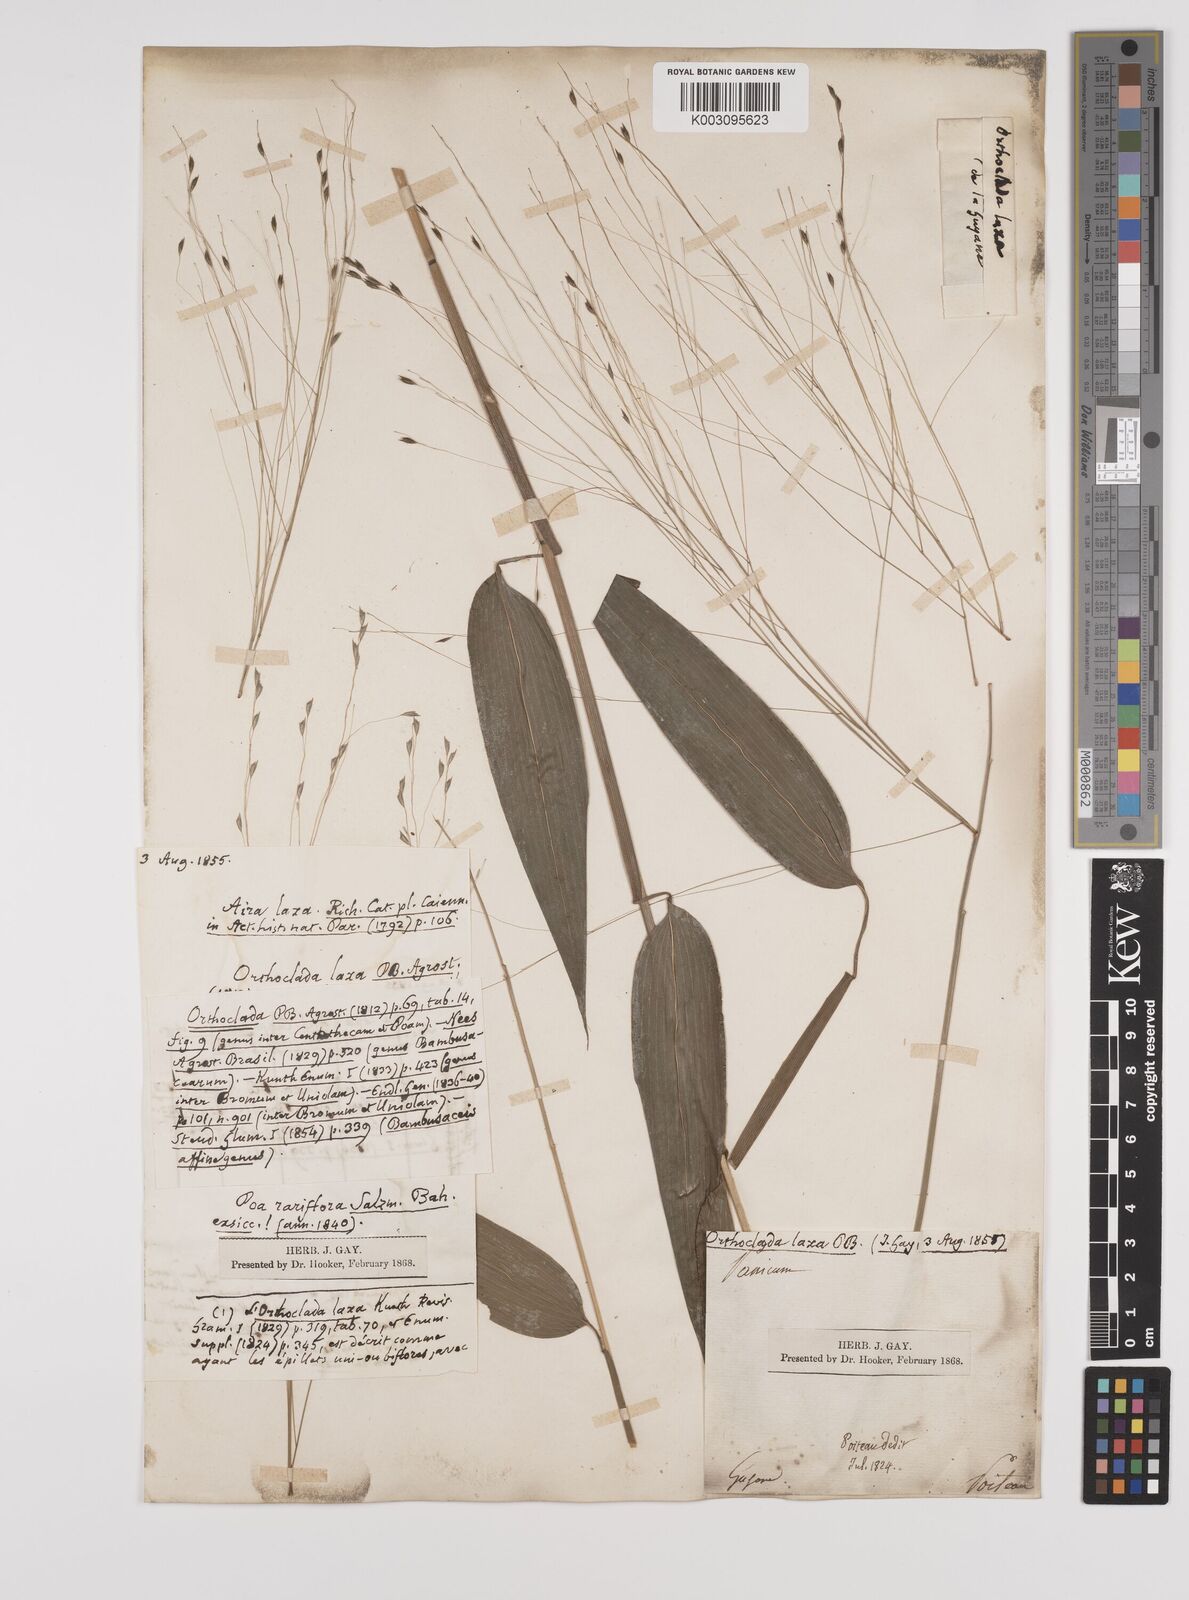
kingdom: Plantae
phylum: Tracheophyta
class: Liliopsida
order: Poales
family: Poaceae
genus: Orthoclada
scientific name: Orthoclada laxa
